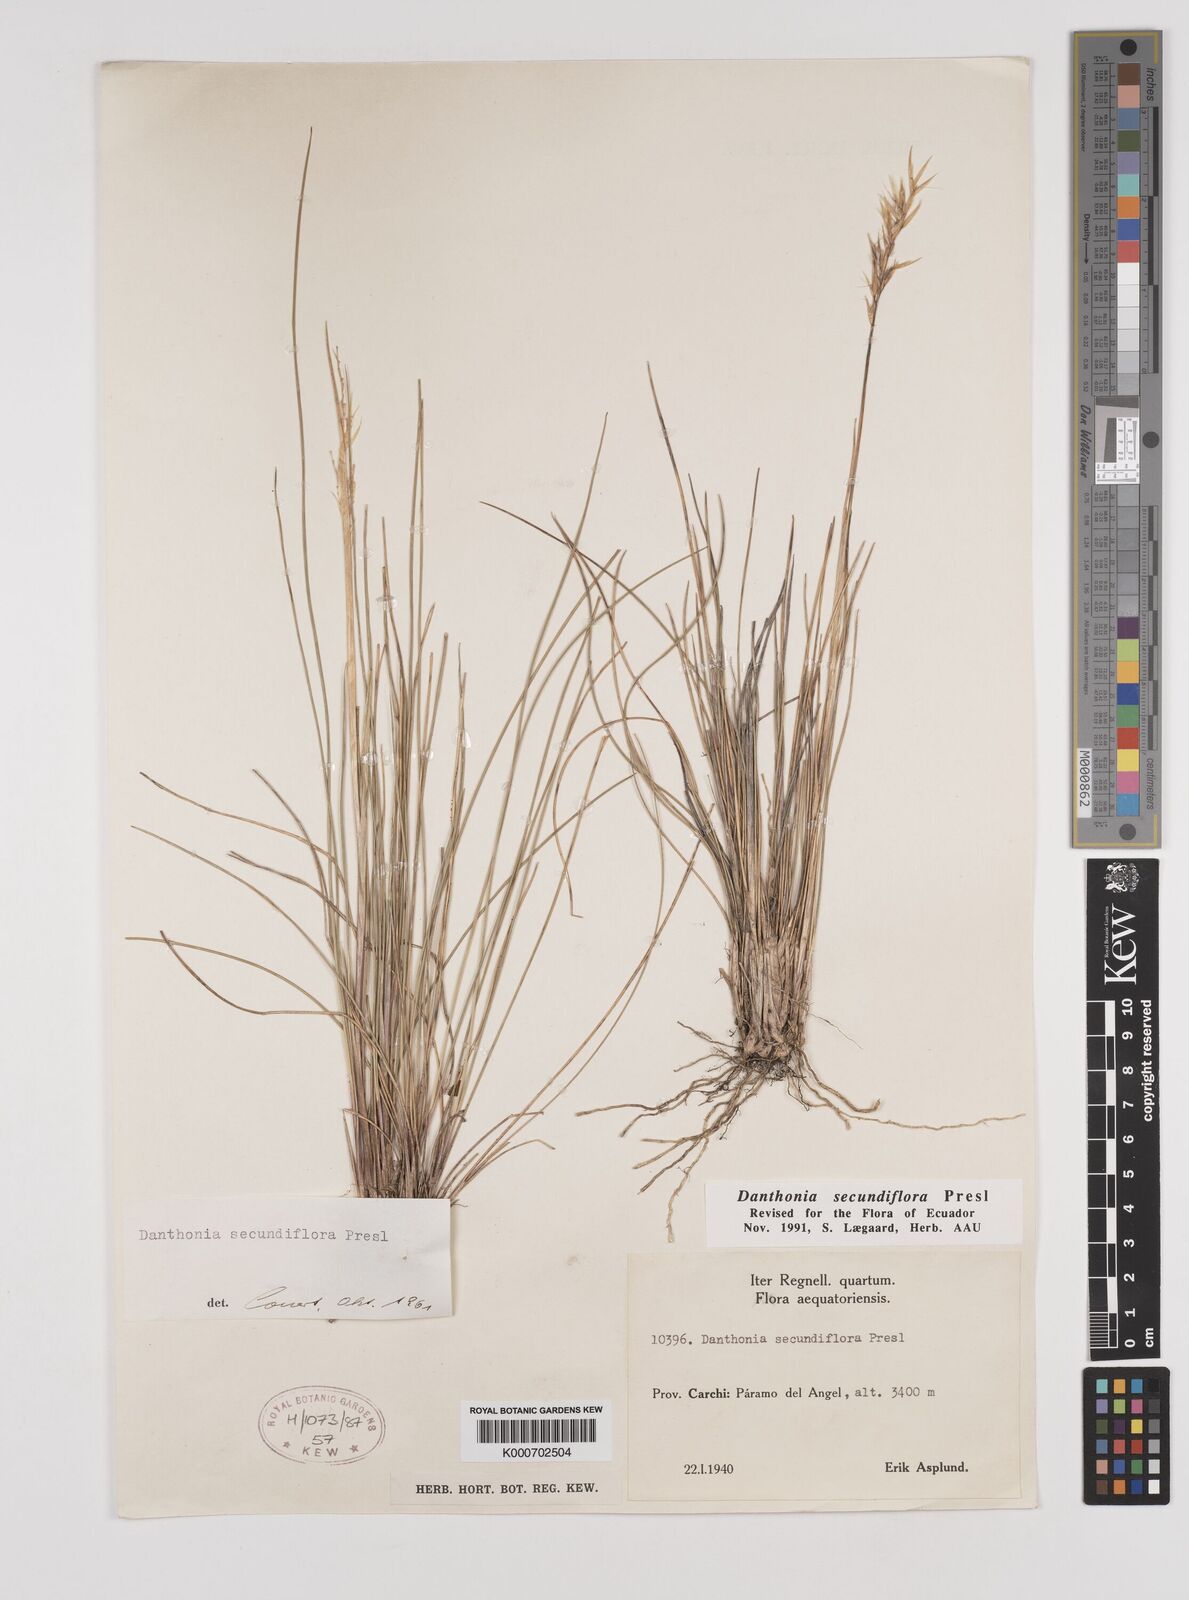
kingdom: Plantae
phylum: Tracheophyta
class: Liliopsida
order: Poales
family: Poaceae
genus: Danthonia
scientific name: Danthonia secundiflora
